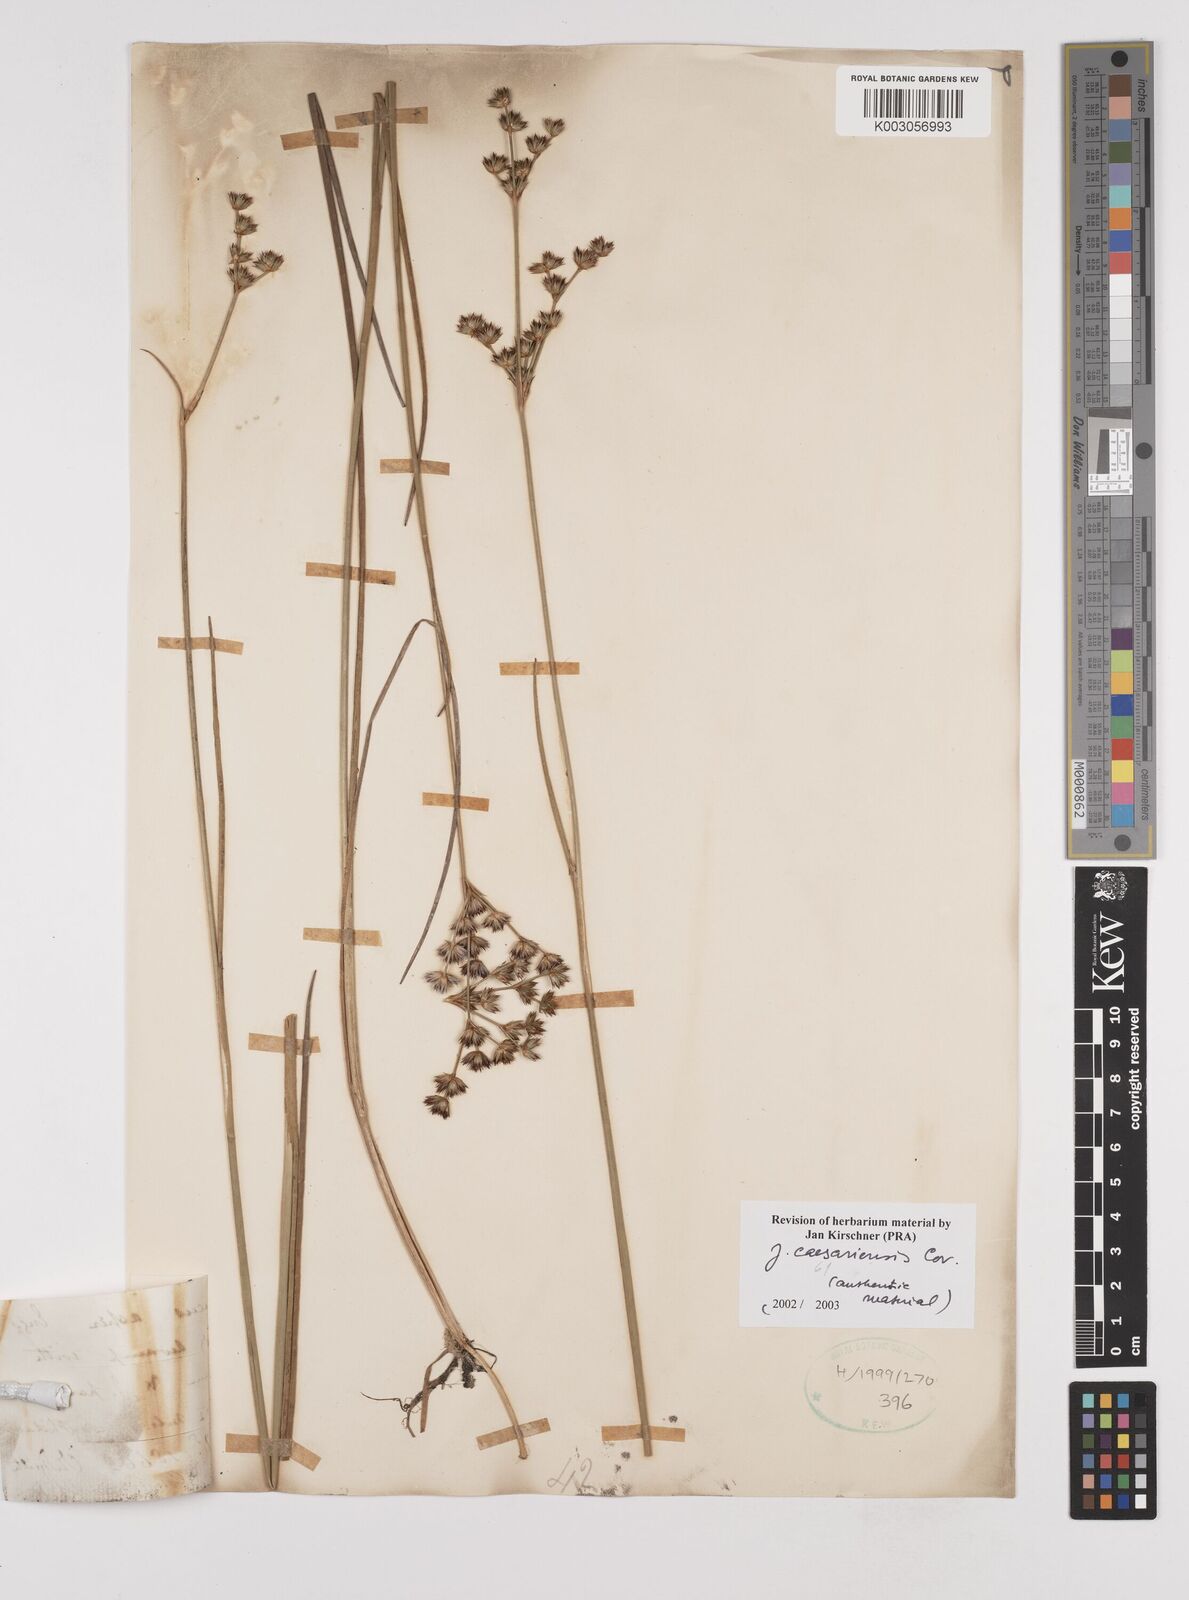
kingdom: Plantae
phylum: Tracheophyta
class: Liliopsida
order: Poales
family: Juncaceae
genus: Juncus
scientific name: Juncus caesariensis
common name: New jersey rush
